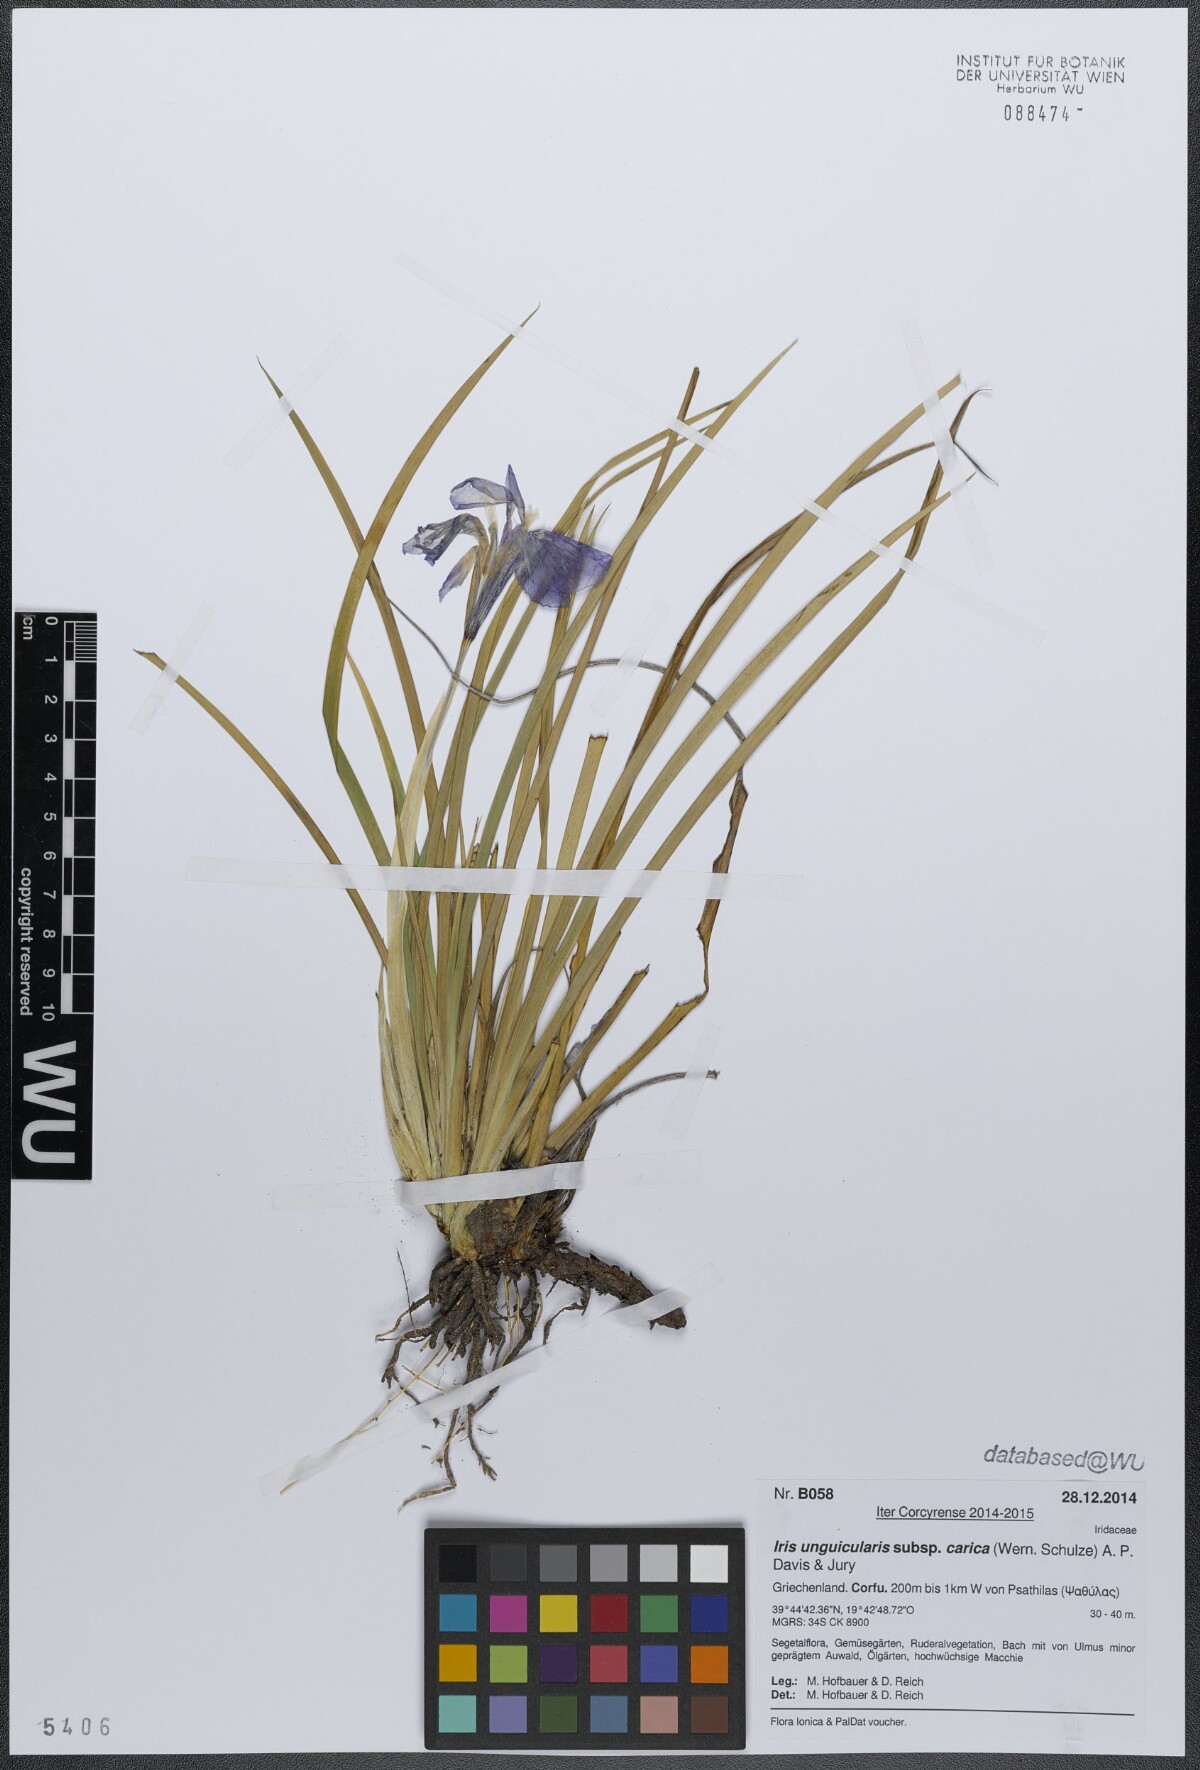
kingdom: Plantae
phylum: Tracheophyta
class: Liliopsida
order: Asparagales
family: Iridaceae
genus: Iris
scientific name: Iris unguicularis
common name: Algerian iris
